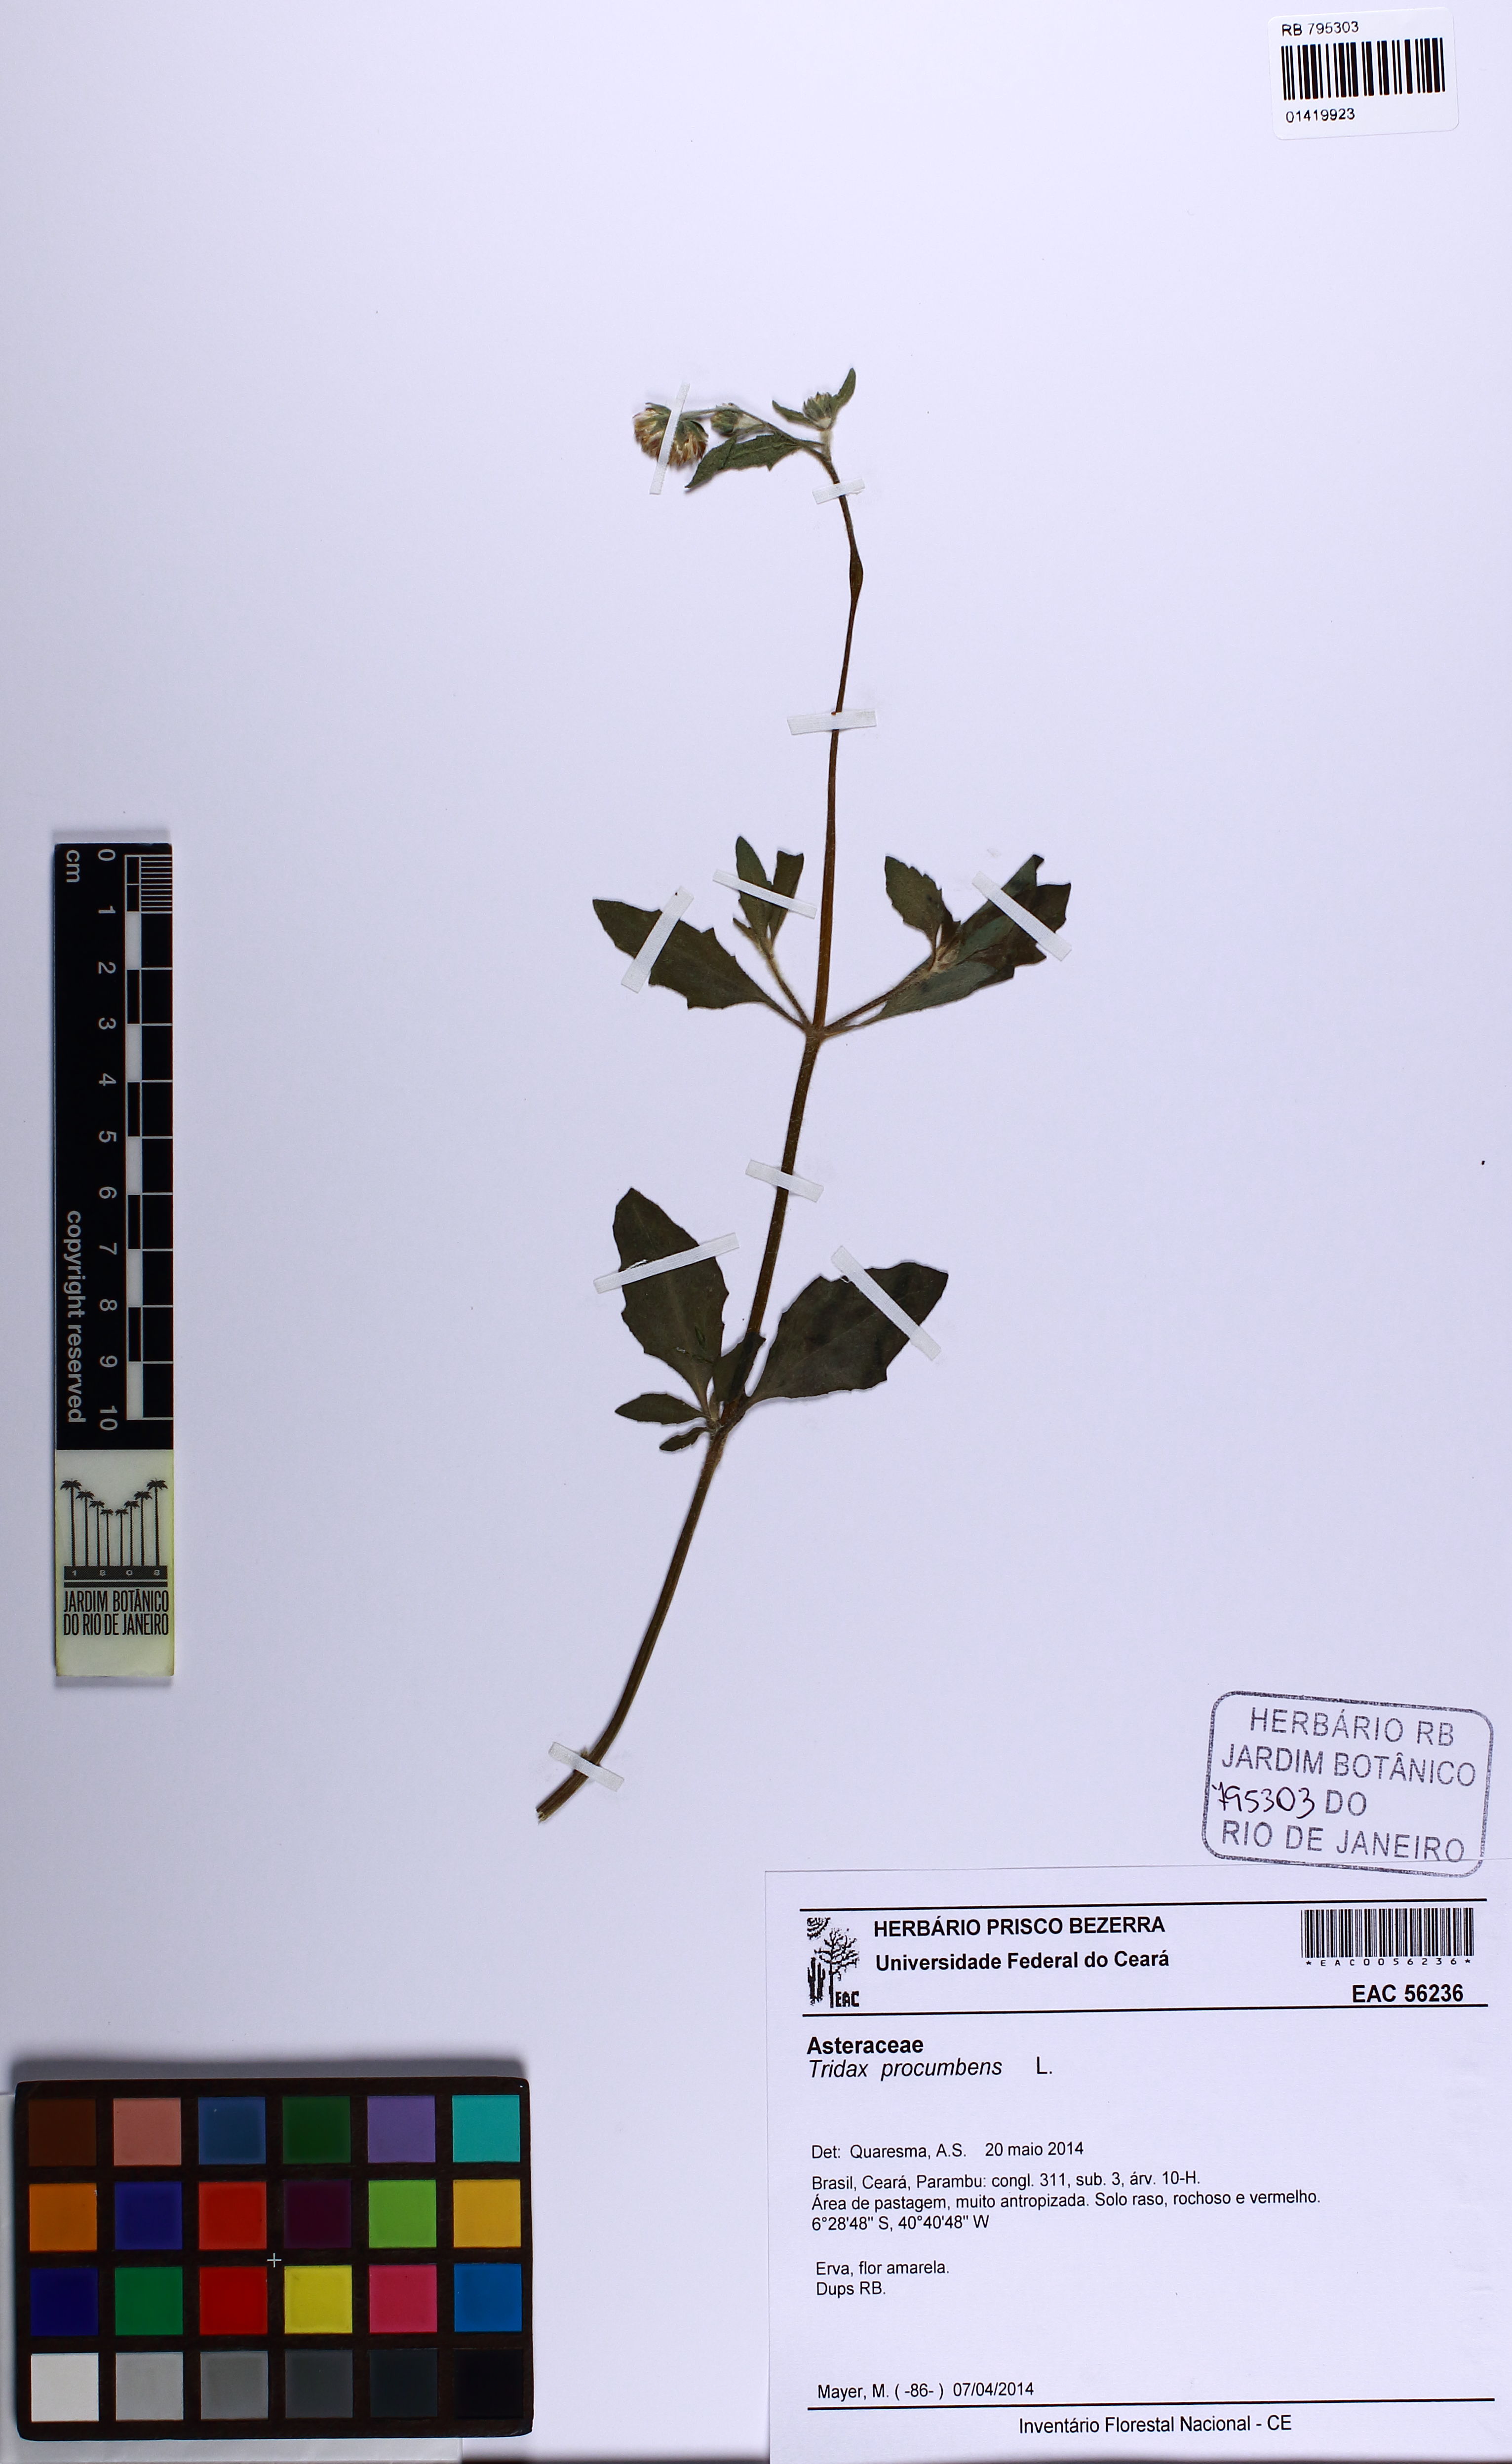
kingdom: Plantae
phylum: Tracheophyta
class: Magnoliopsida
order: Asterales
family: Asteraceae
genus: Tridax
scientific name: Tridax procumbens
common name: Coatbuttons
